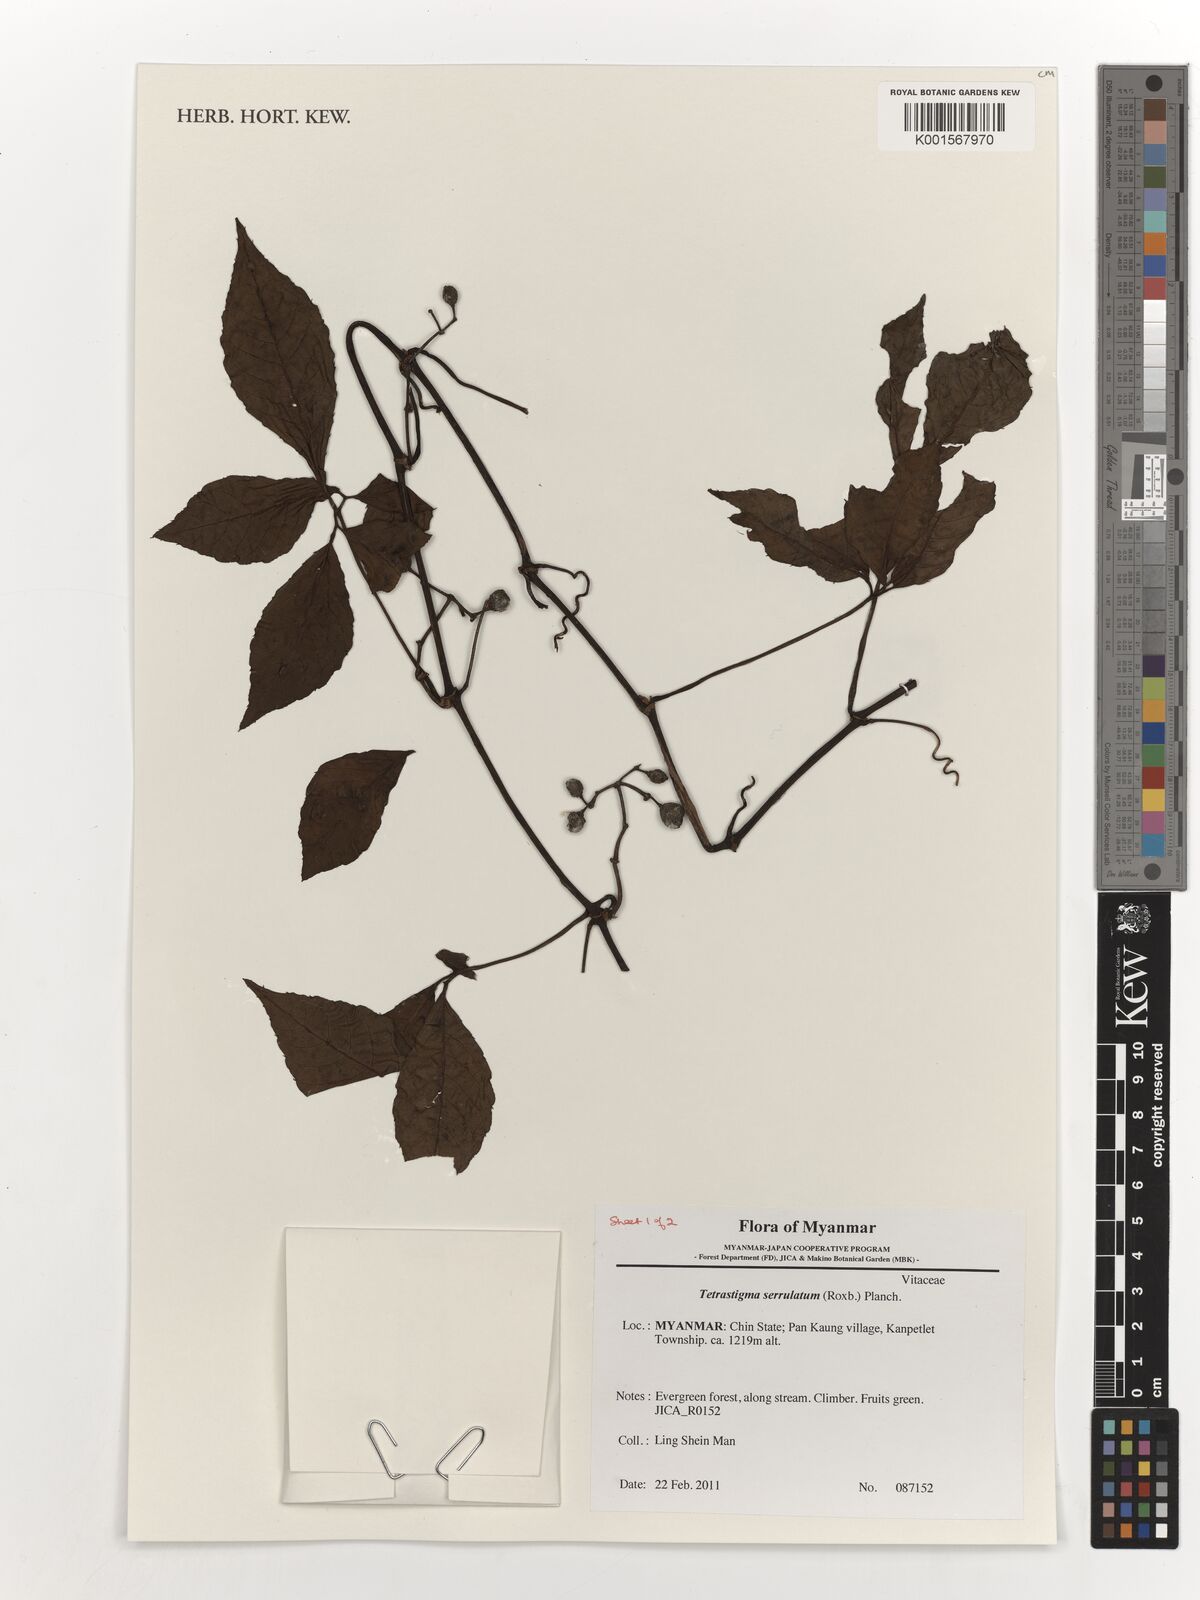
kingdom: Plantae
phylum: Tracheophyta
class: Magnoliopsida
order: Vitales
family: Vitaceae
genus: Tetrastigma
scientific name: Tetrastigma serrulatum
